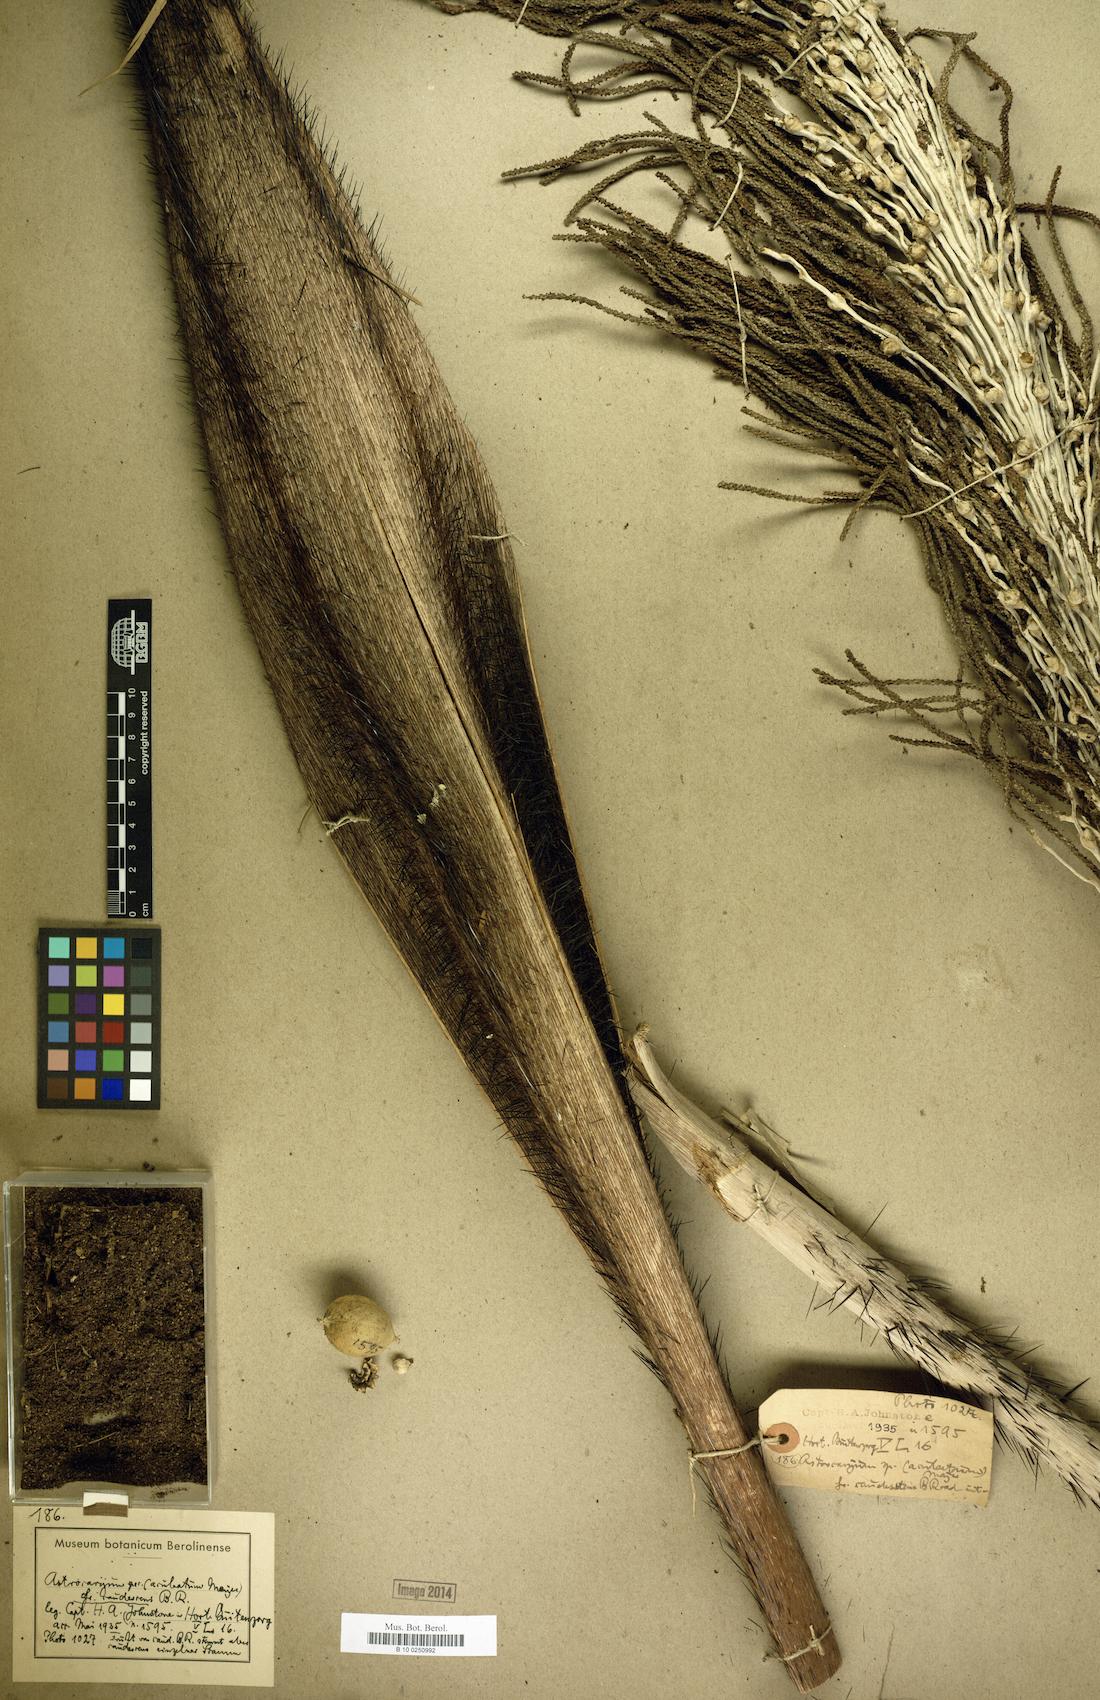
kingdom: Plantae
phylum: Tracheophyta
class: Liliopsida
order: Arecales
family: Arecaceae
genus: Astrocaryum
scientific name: Astrocaryum
